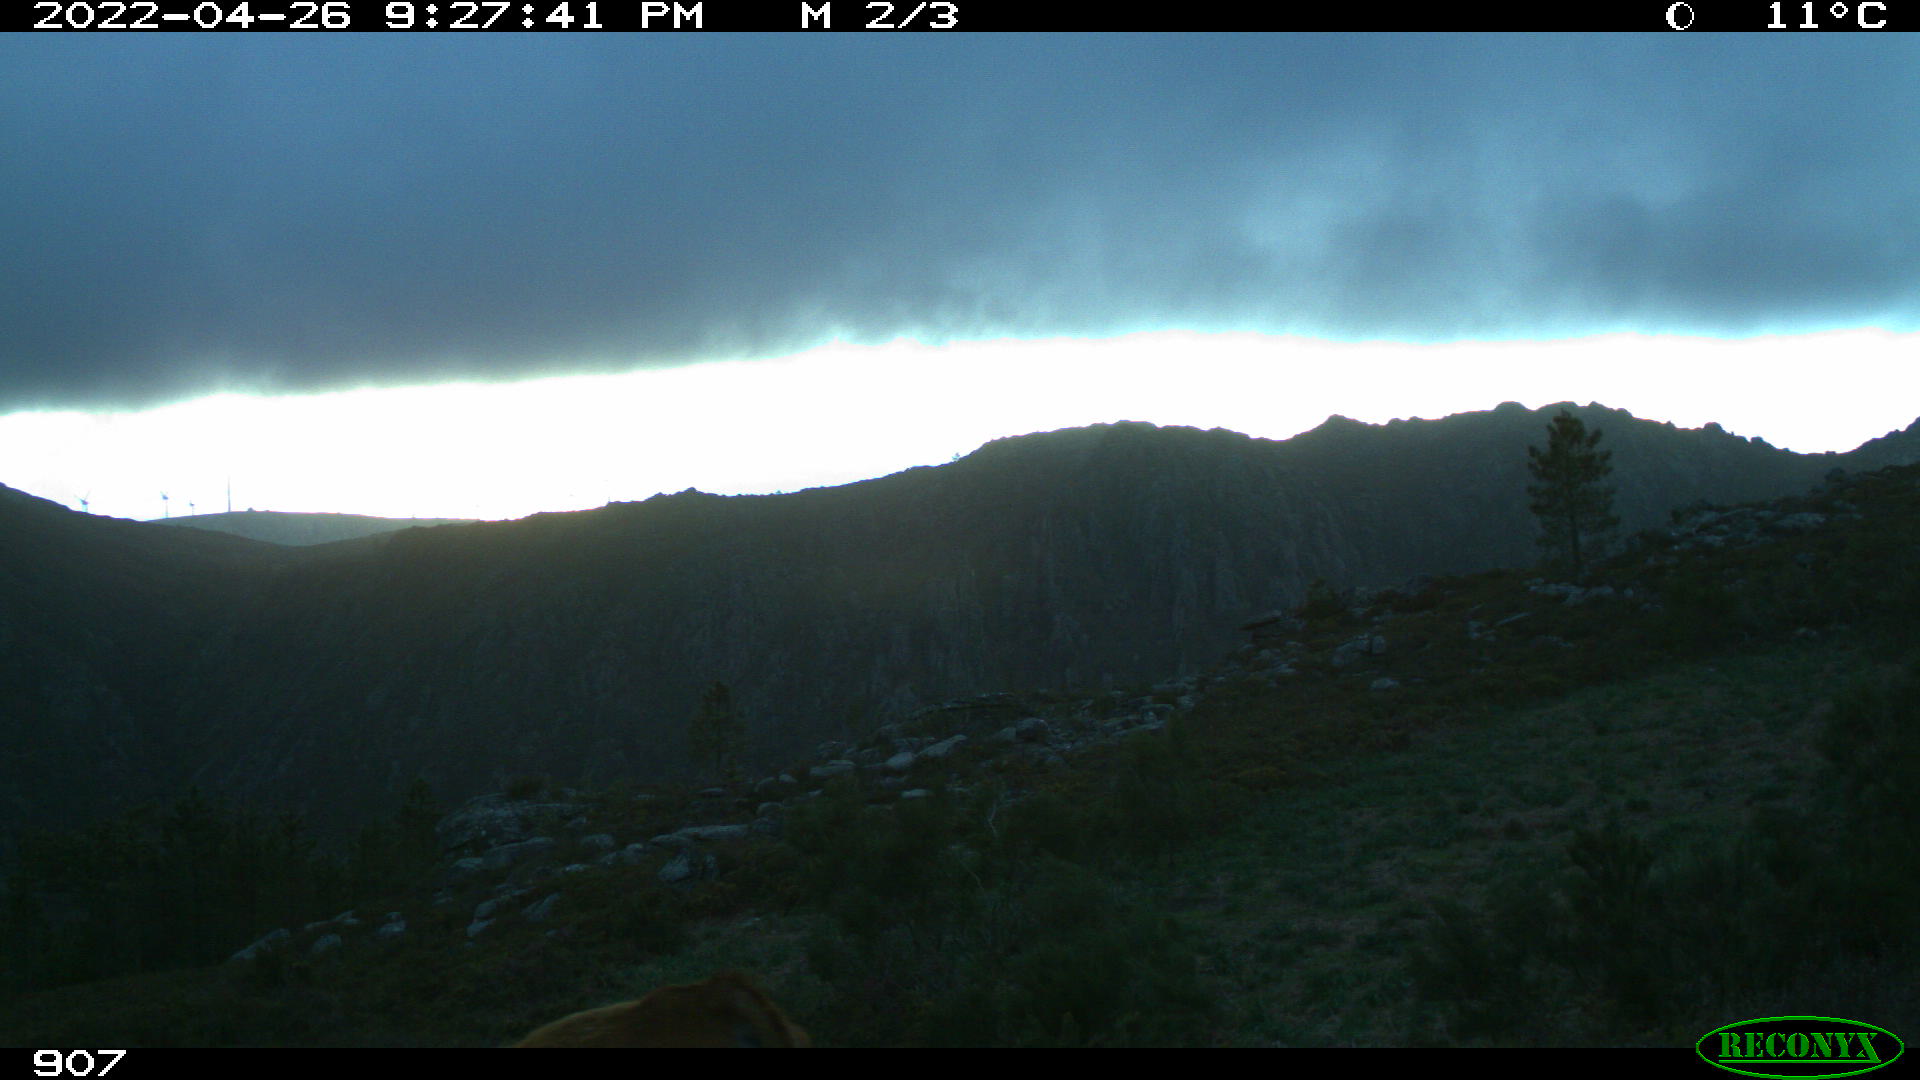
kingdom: Animalia
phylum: Chordata
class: Mammalia
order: Artiodactyla
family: Bovidae
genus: Bos
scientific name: Bos taurus
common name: Domesticated cattle
